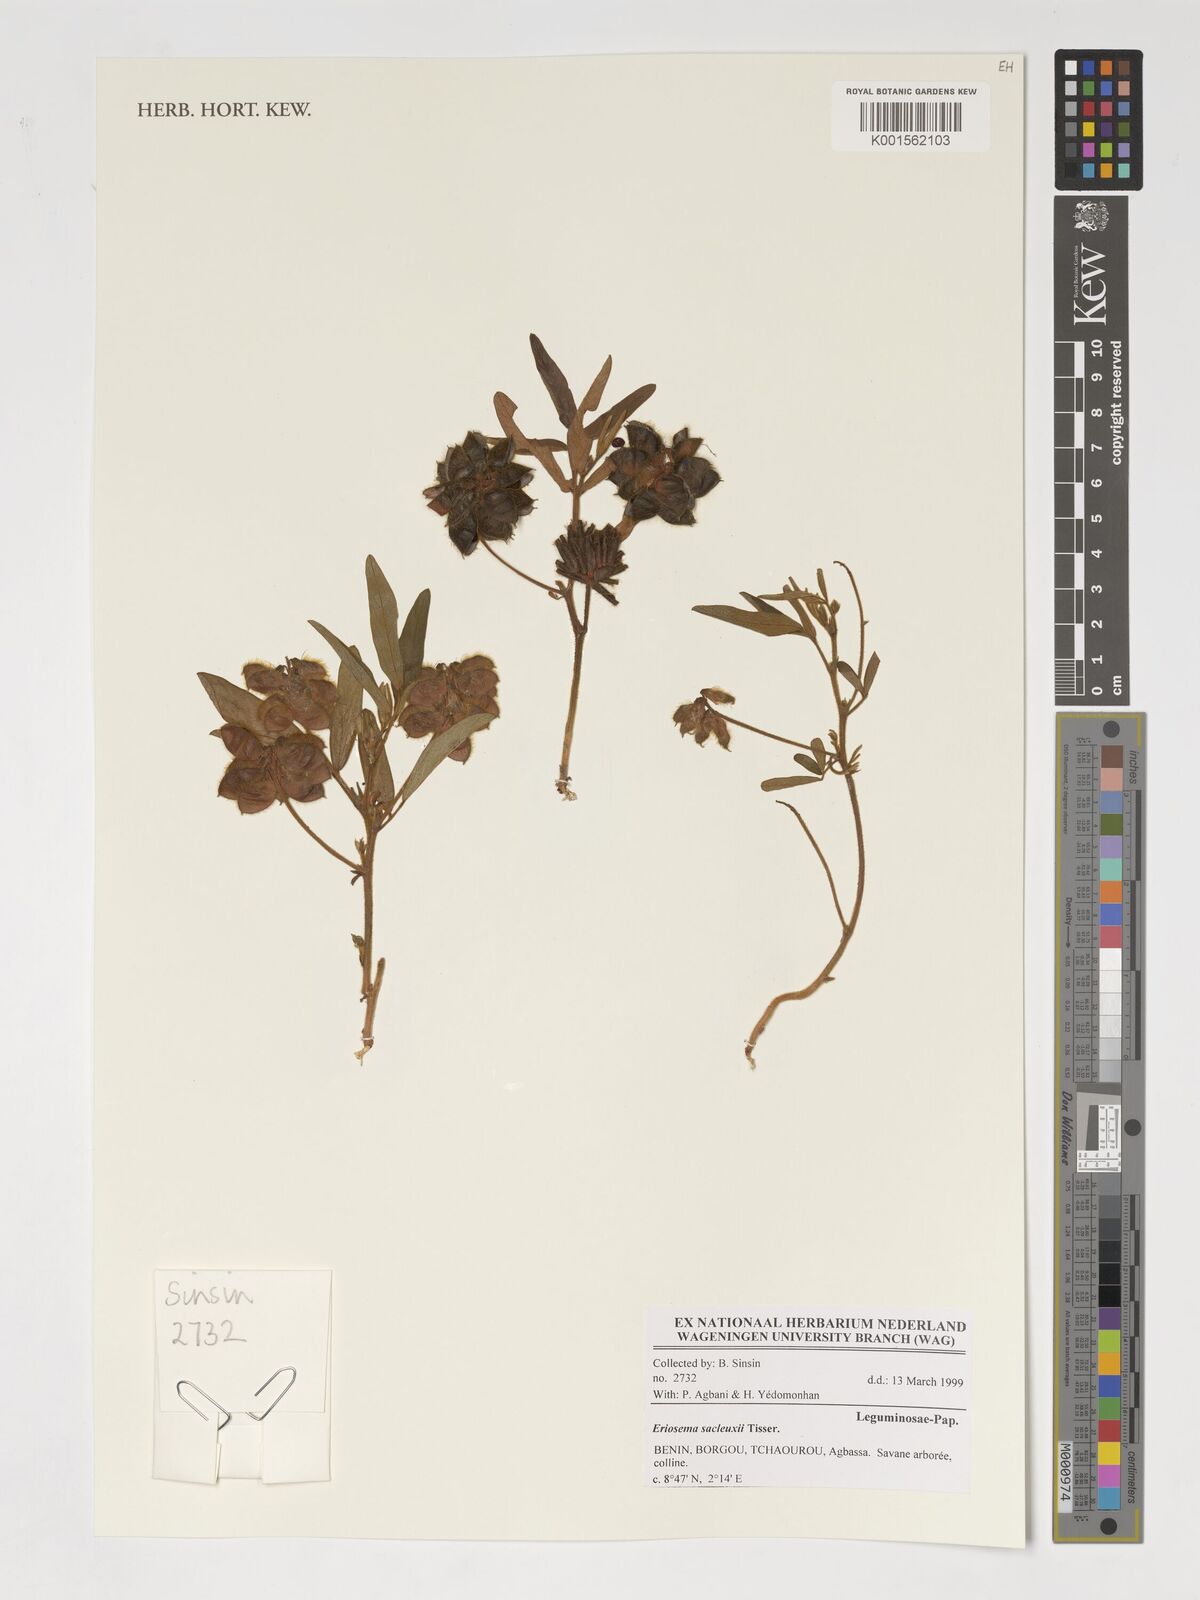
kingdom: Plantae
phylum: Tracheophyta
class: Magnoliopsida
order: Fabales
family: Fabaceae
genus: Eriosema
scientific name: Eriosema sacleuxii
